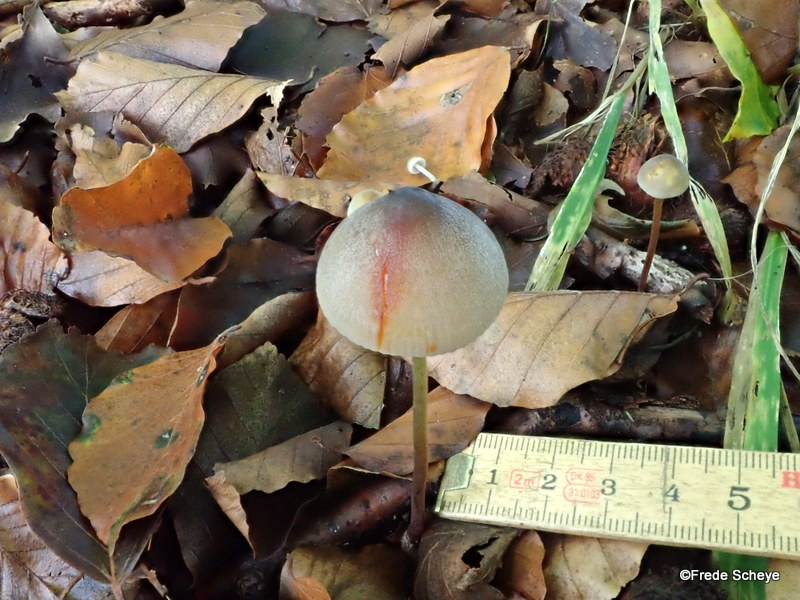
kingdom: Fungi
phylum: Basidiomycota
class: Agaricomycetes
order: Agaricales
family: Mycenaceae
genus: Mycena
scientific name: Mycena crocata
